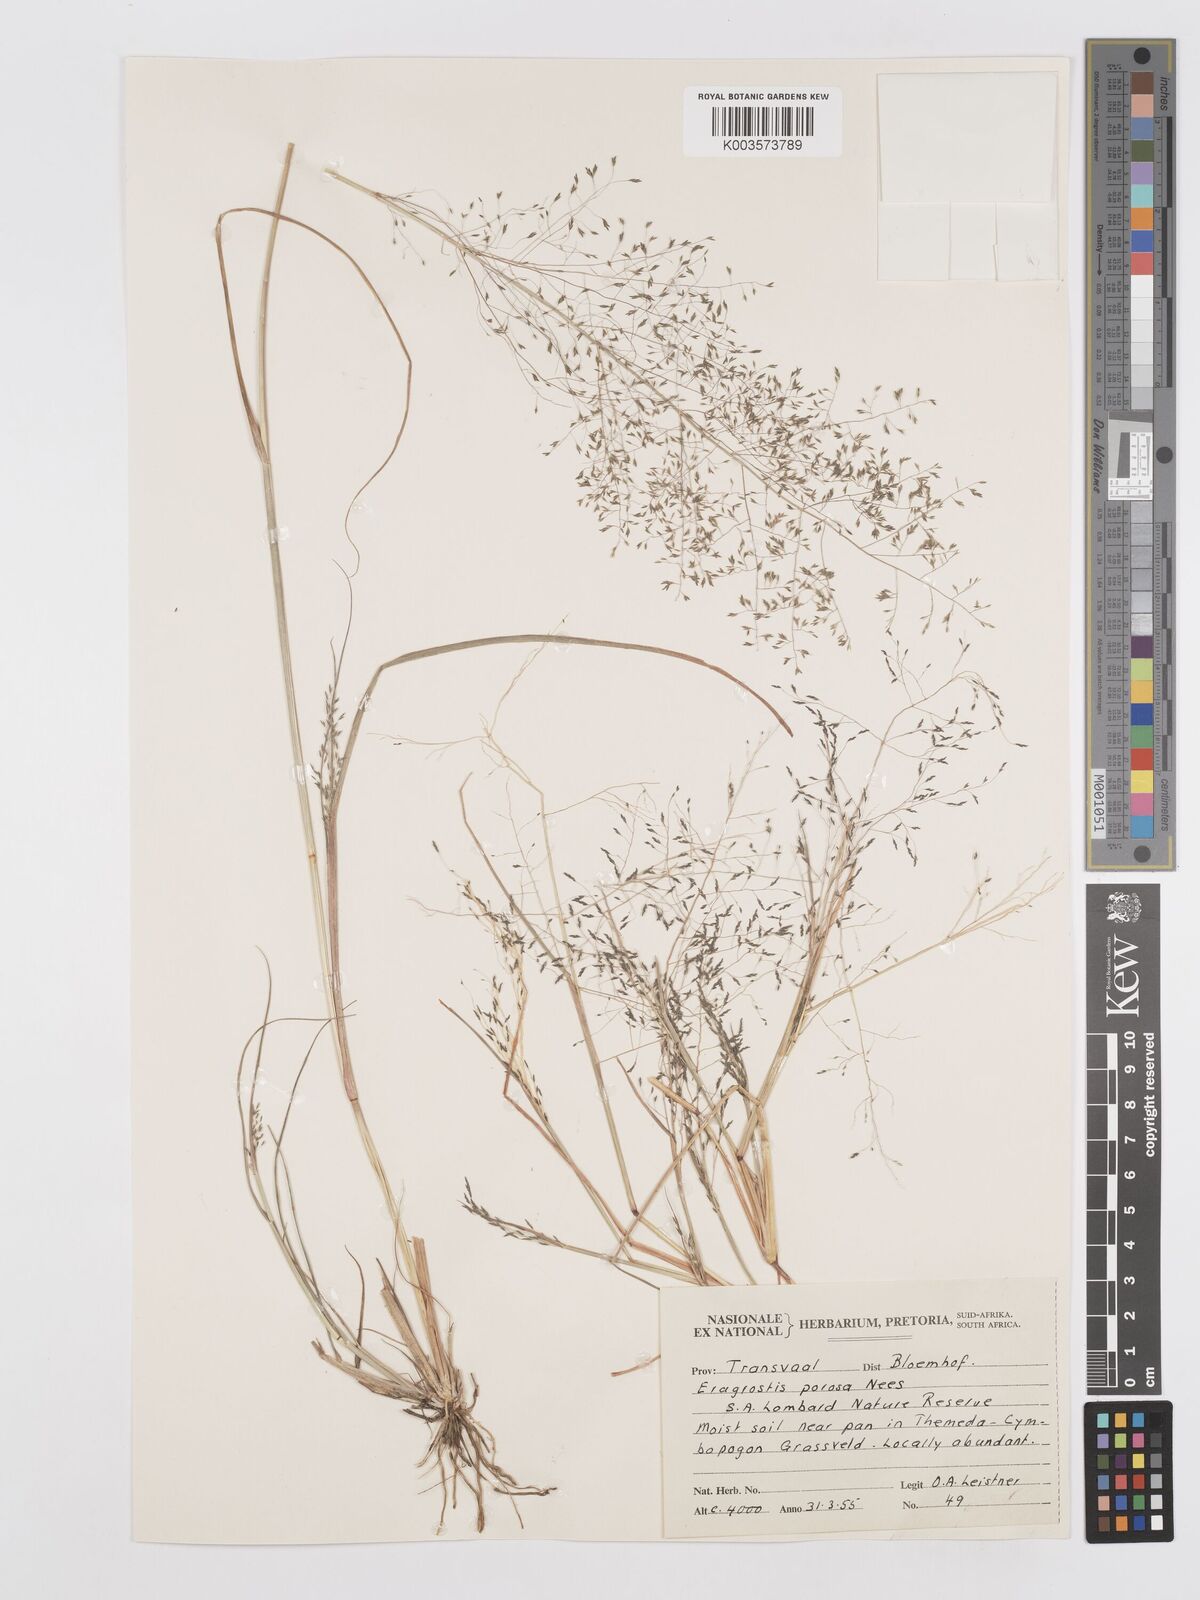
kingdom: Plantae
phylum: Tracheophyta
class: Liliopsida
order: Poales
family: Poaceae
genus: Eragrostis
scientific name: Eragrostis porosa
